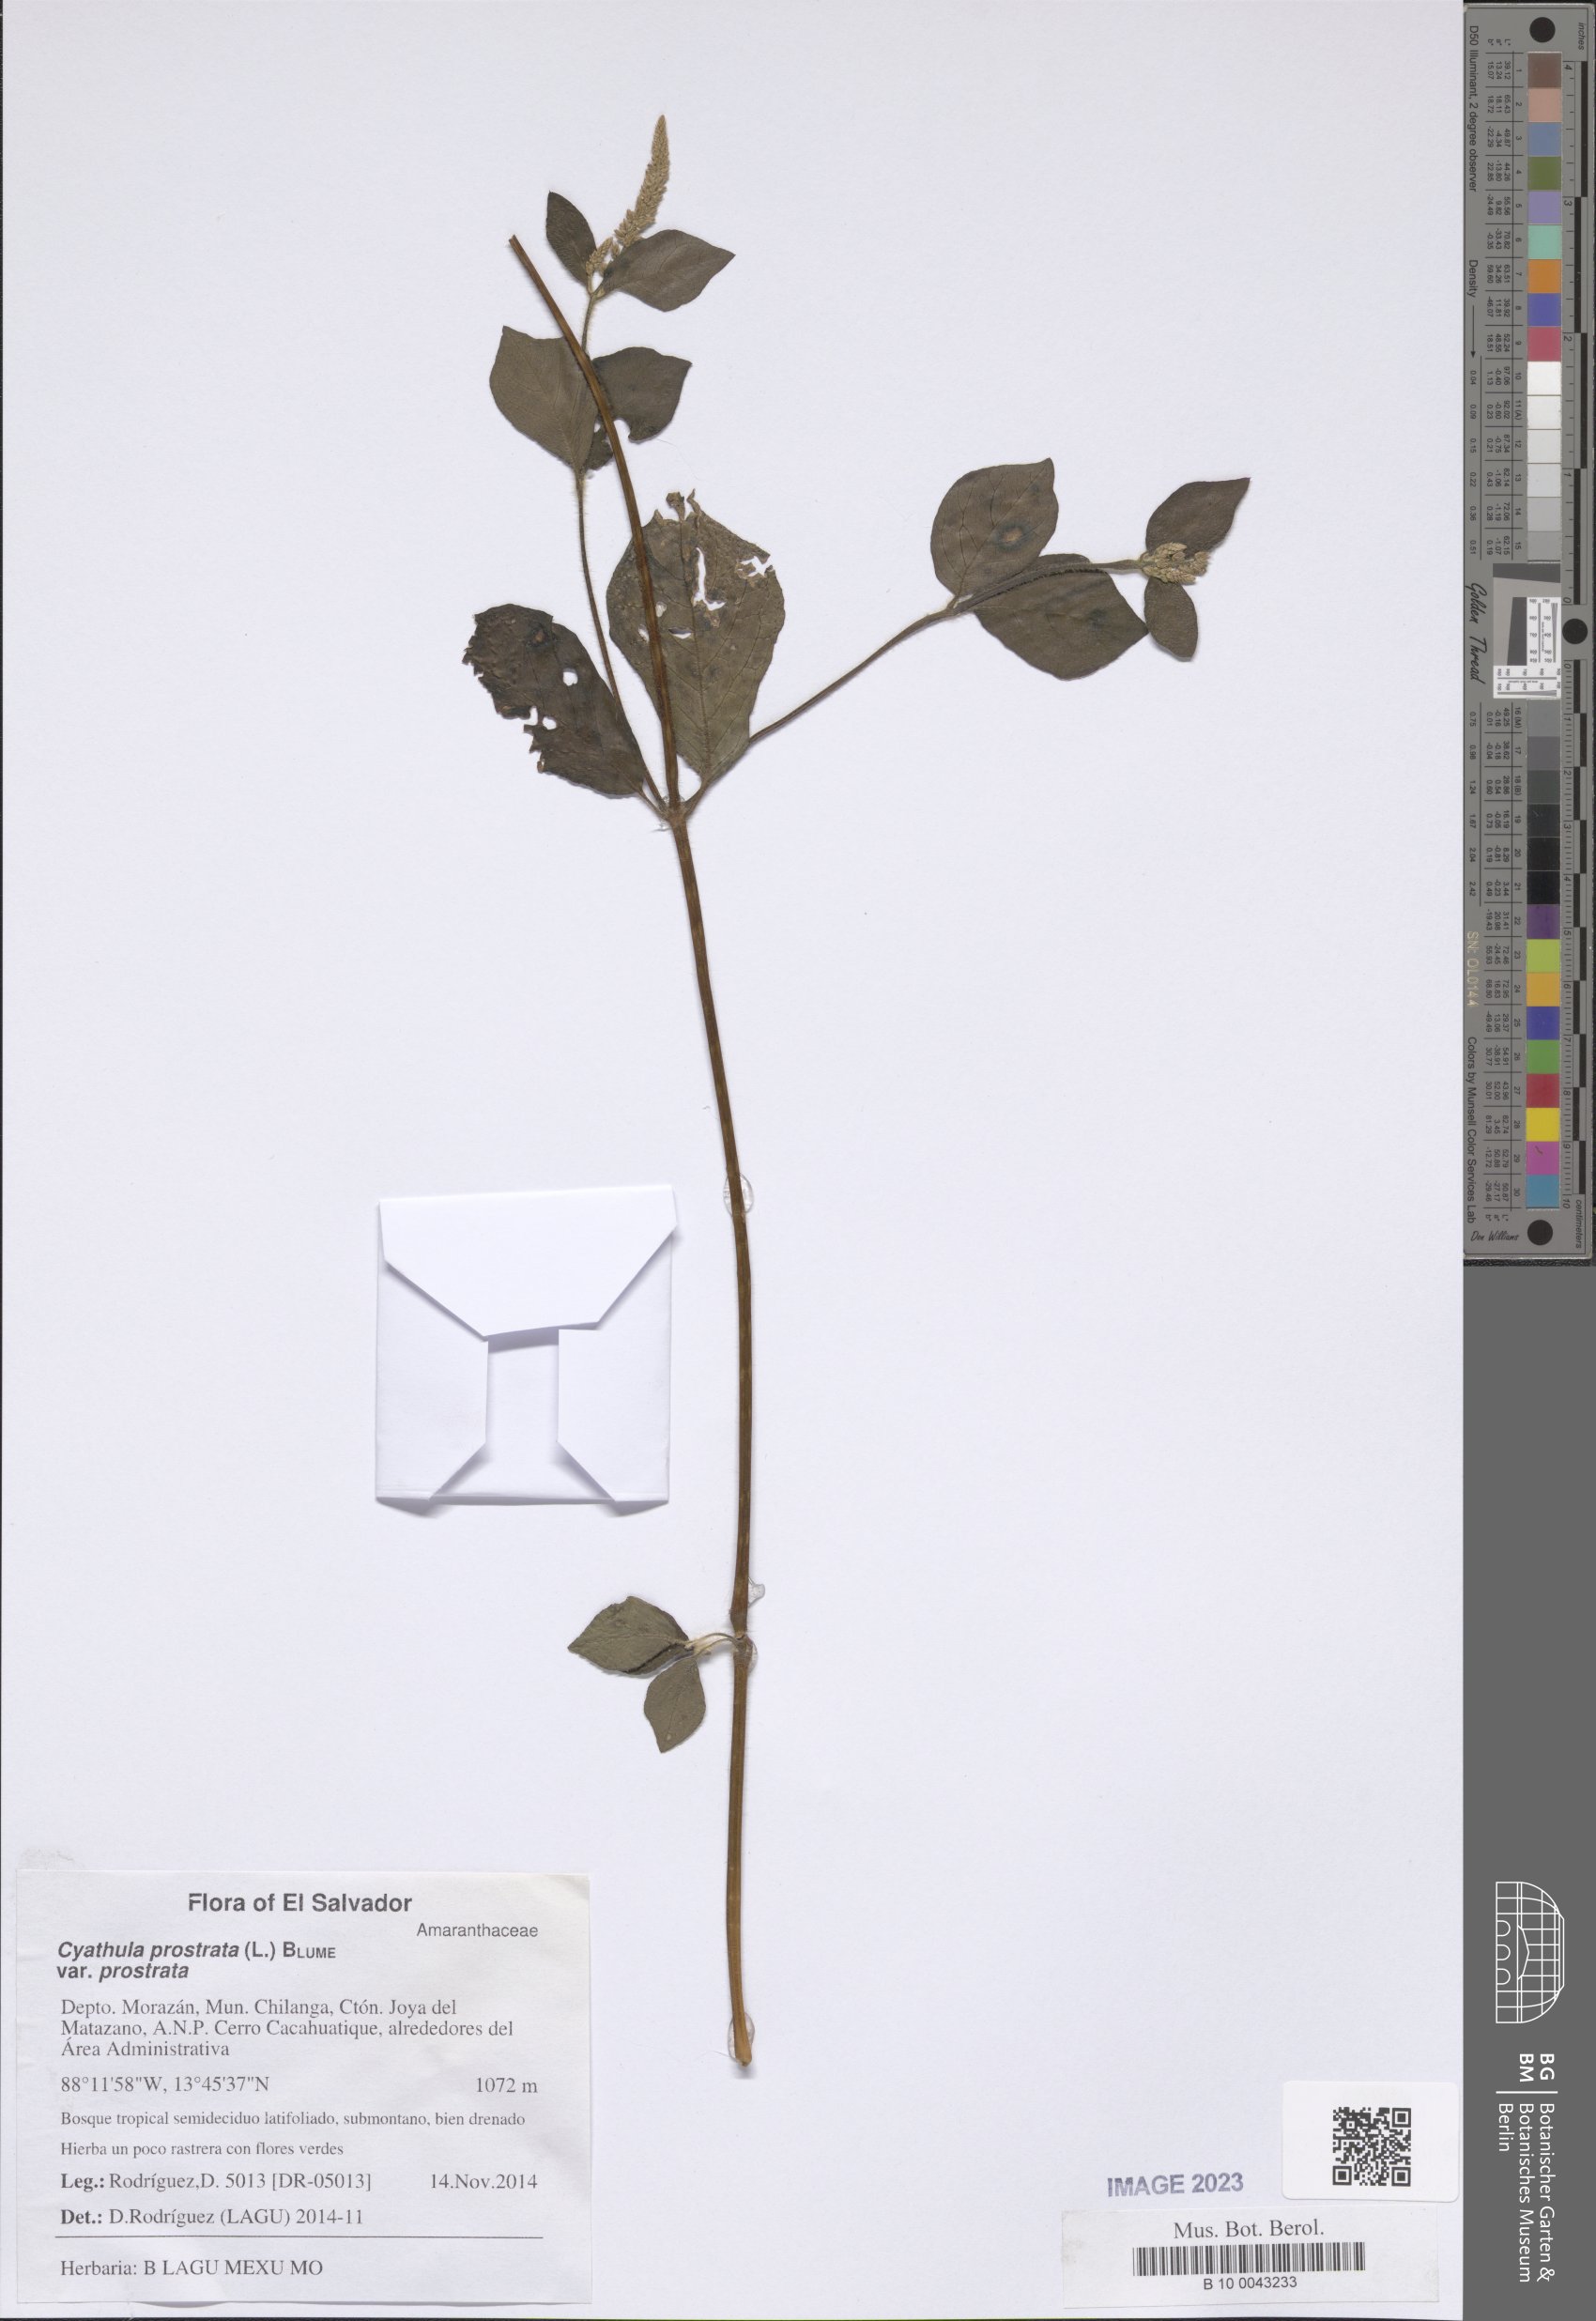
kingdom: Plantae
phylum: Tracheophyta
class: Magnoliopsida
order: Caryophyllales
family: Amaranthaceae
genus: Cyathula
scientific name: Cyathula prostrata
